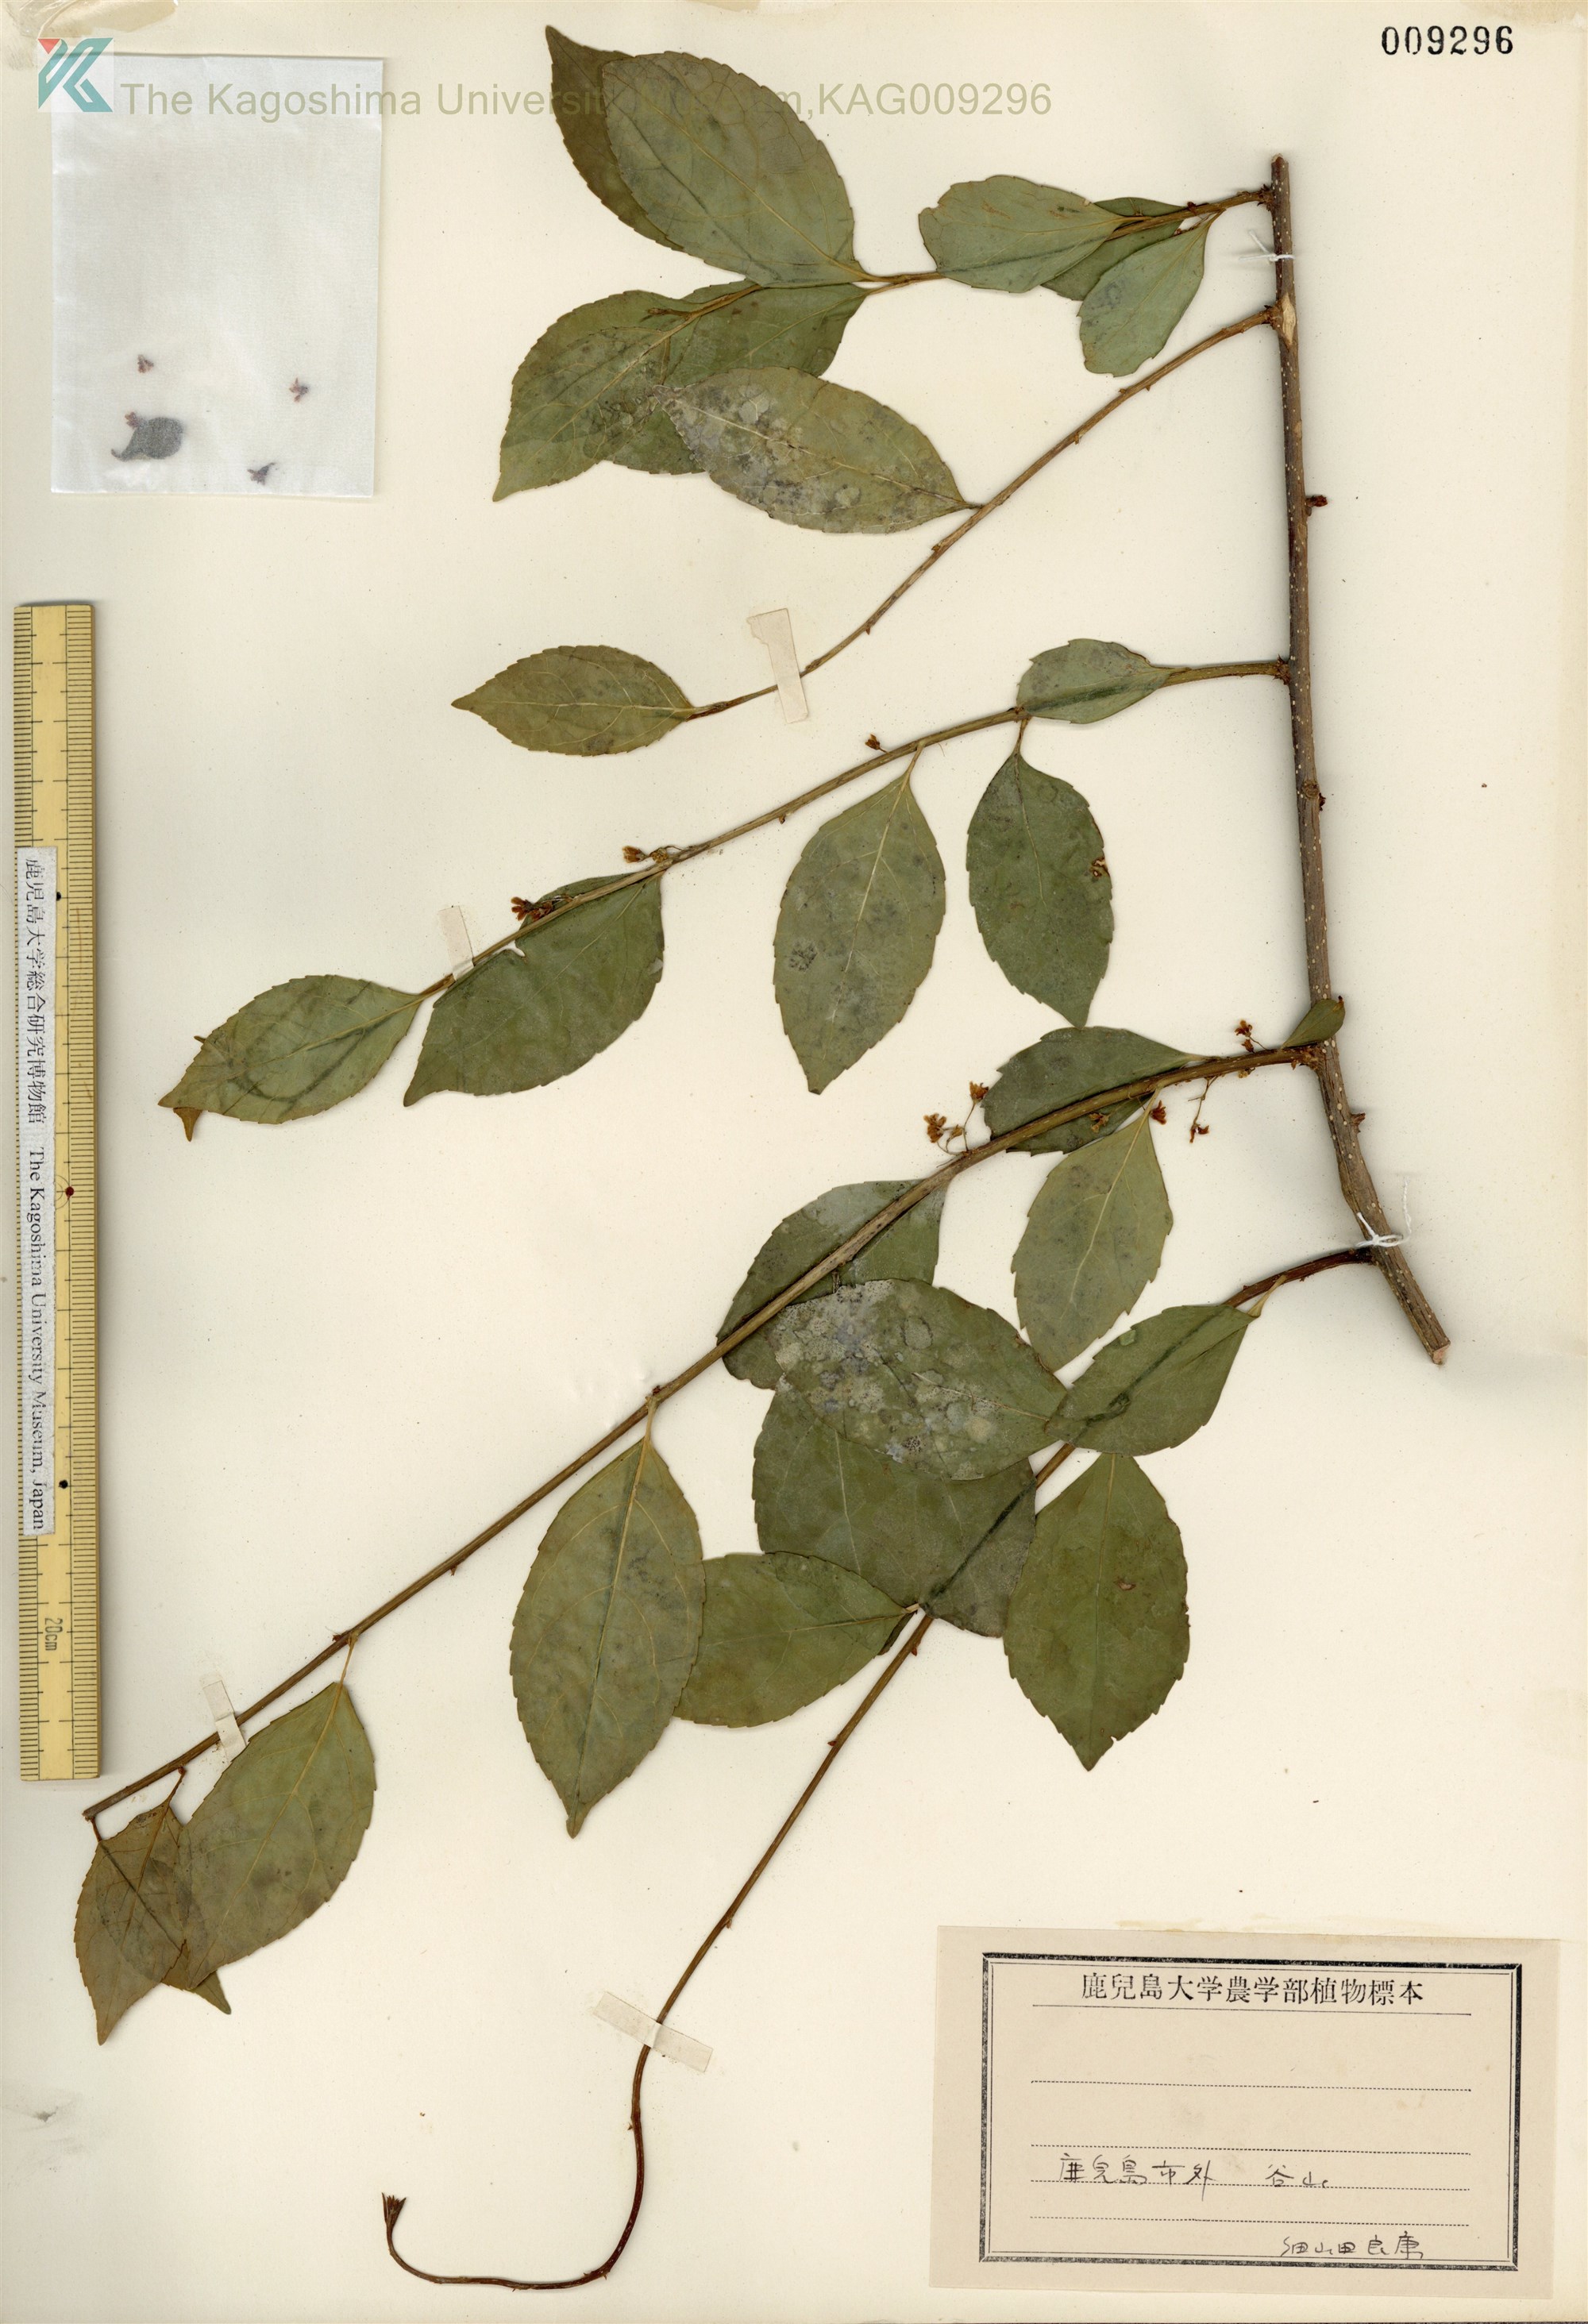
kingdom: Plantae
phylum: Tracheophyta
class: Magnoliopsida
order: Celastrales
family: Celastraceae
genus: Celastrus
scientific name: Celastrus punctatus
